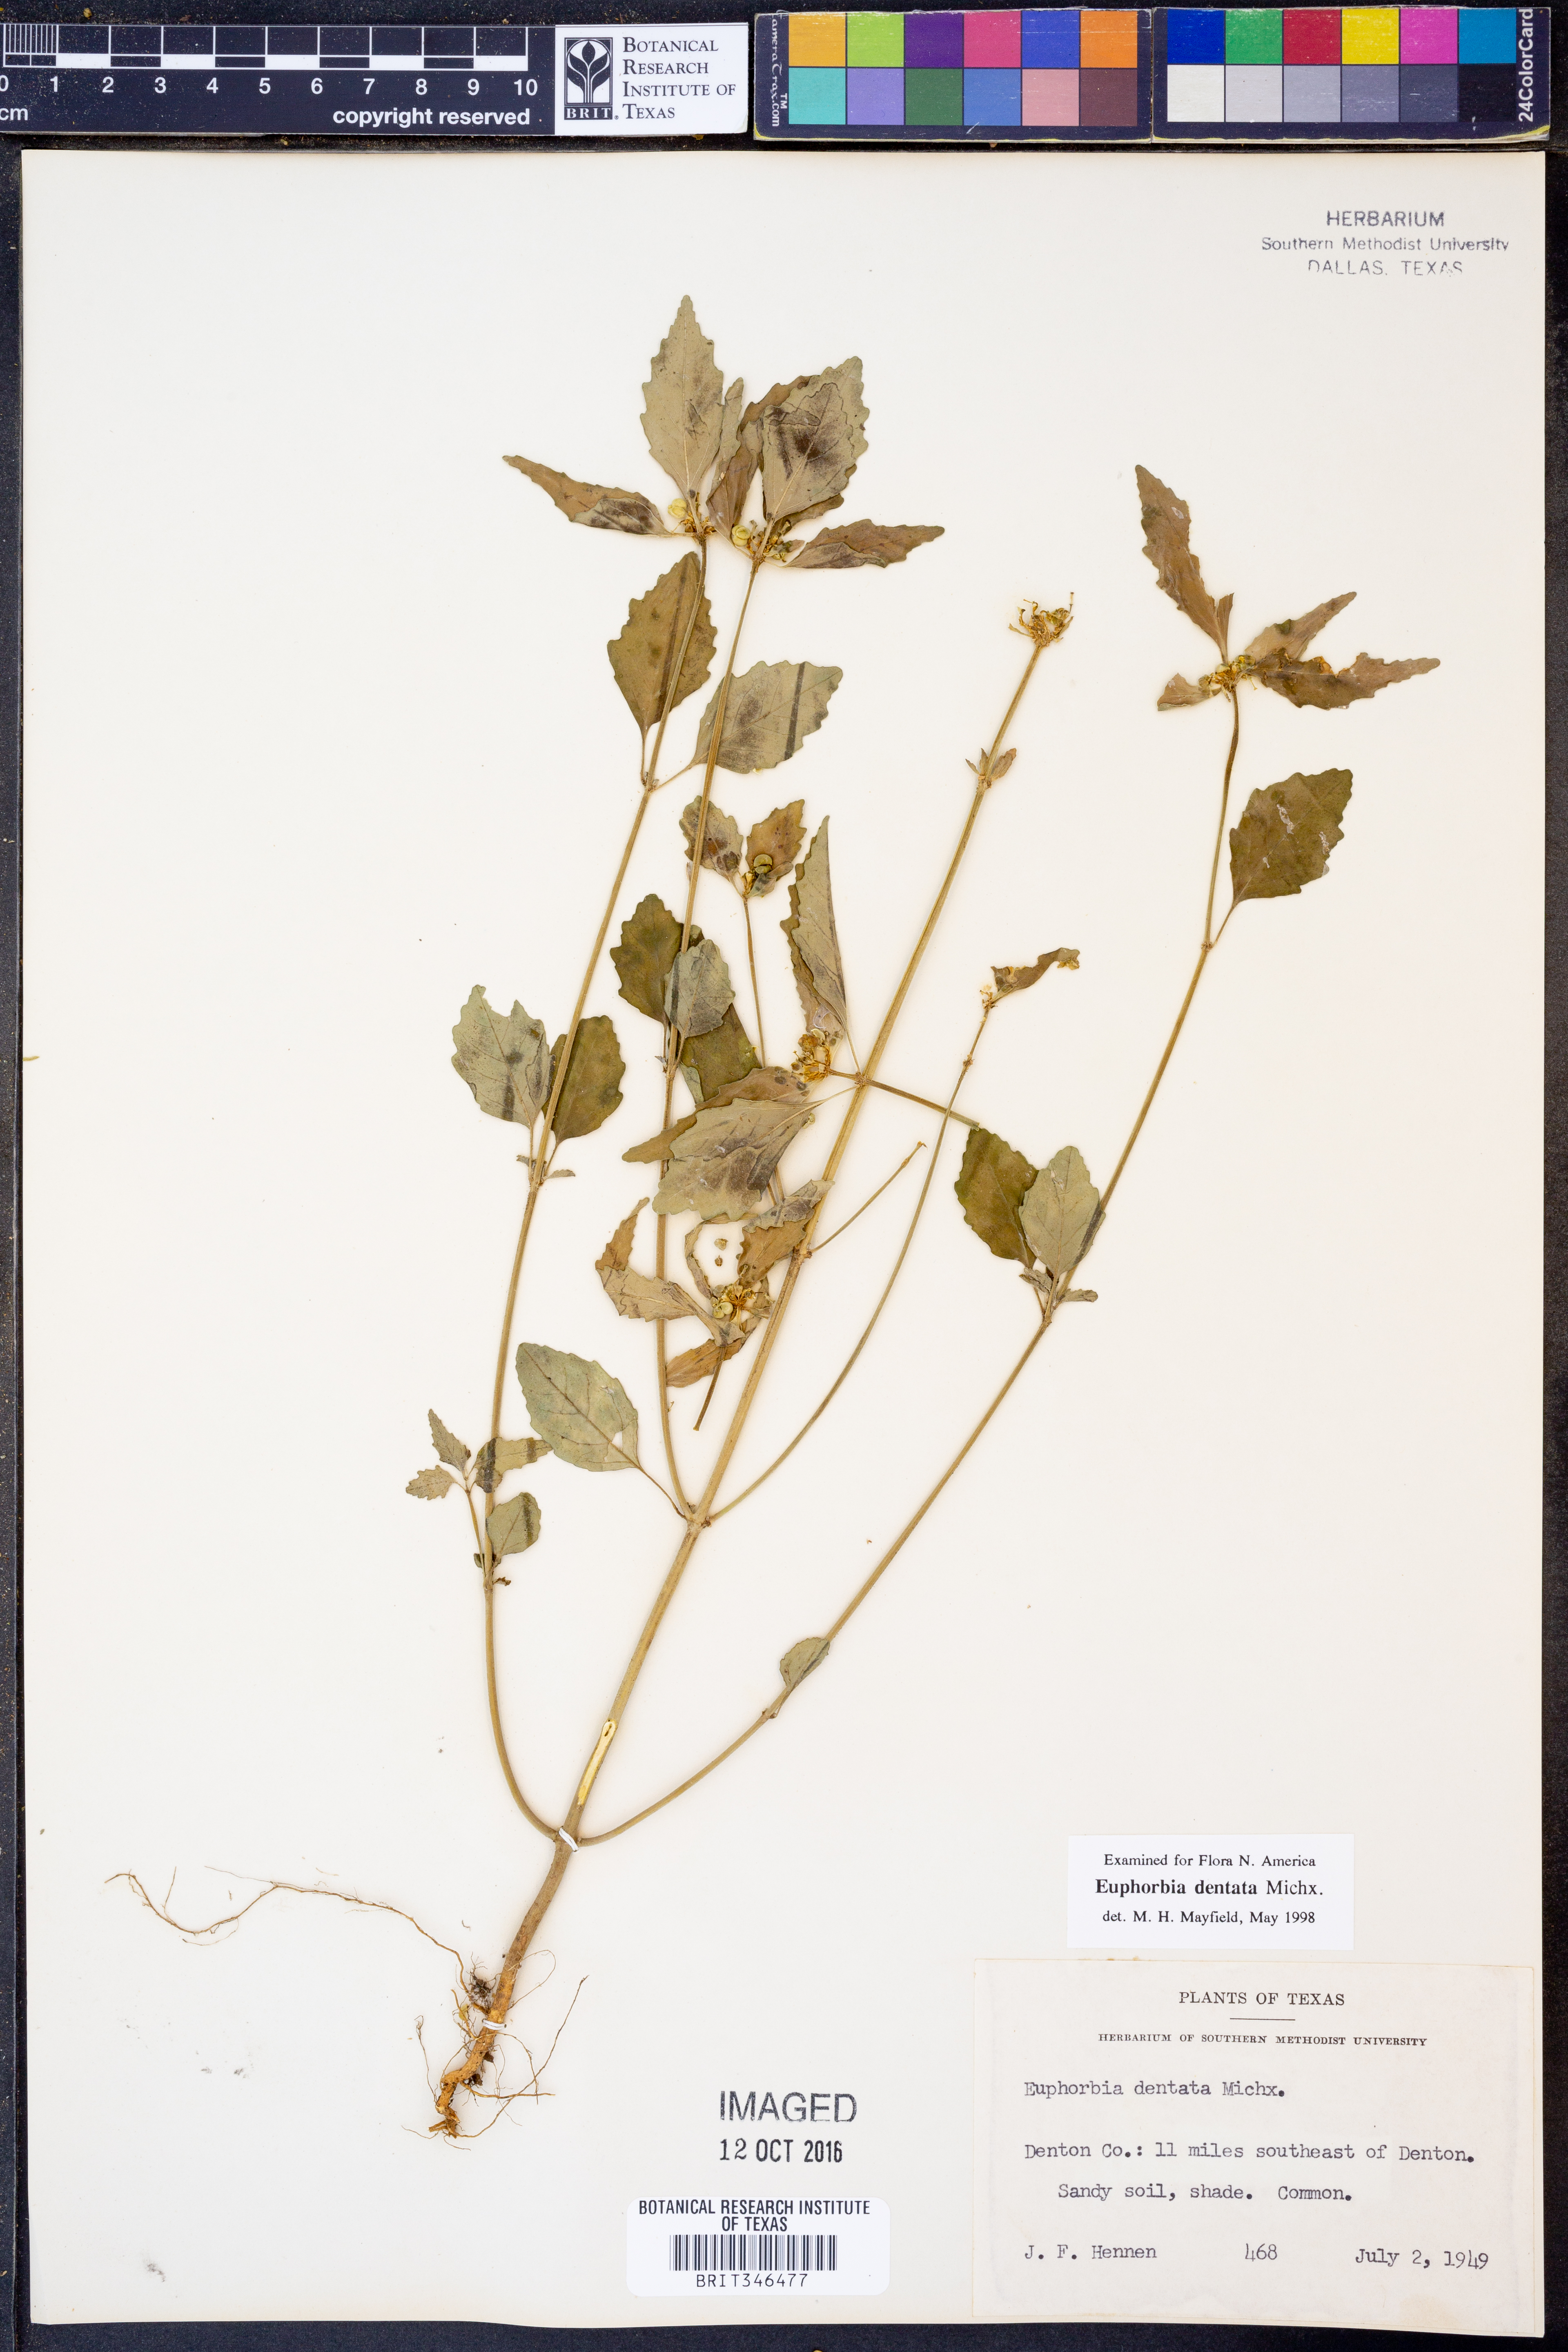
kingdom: Plantae
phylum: Tracheophyta
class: Magnoliopsida
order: Malpighiales
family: Euphorbiaceae
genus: Euphorbia
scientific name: Euphorbia dentata
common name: Dentate spurge
